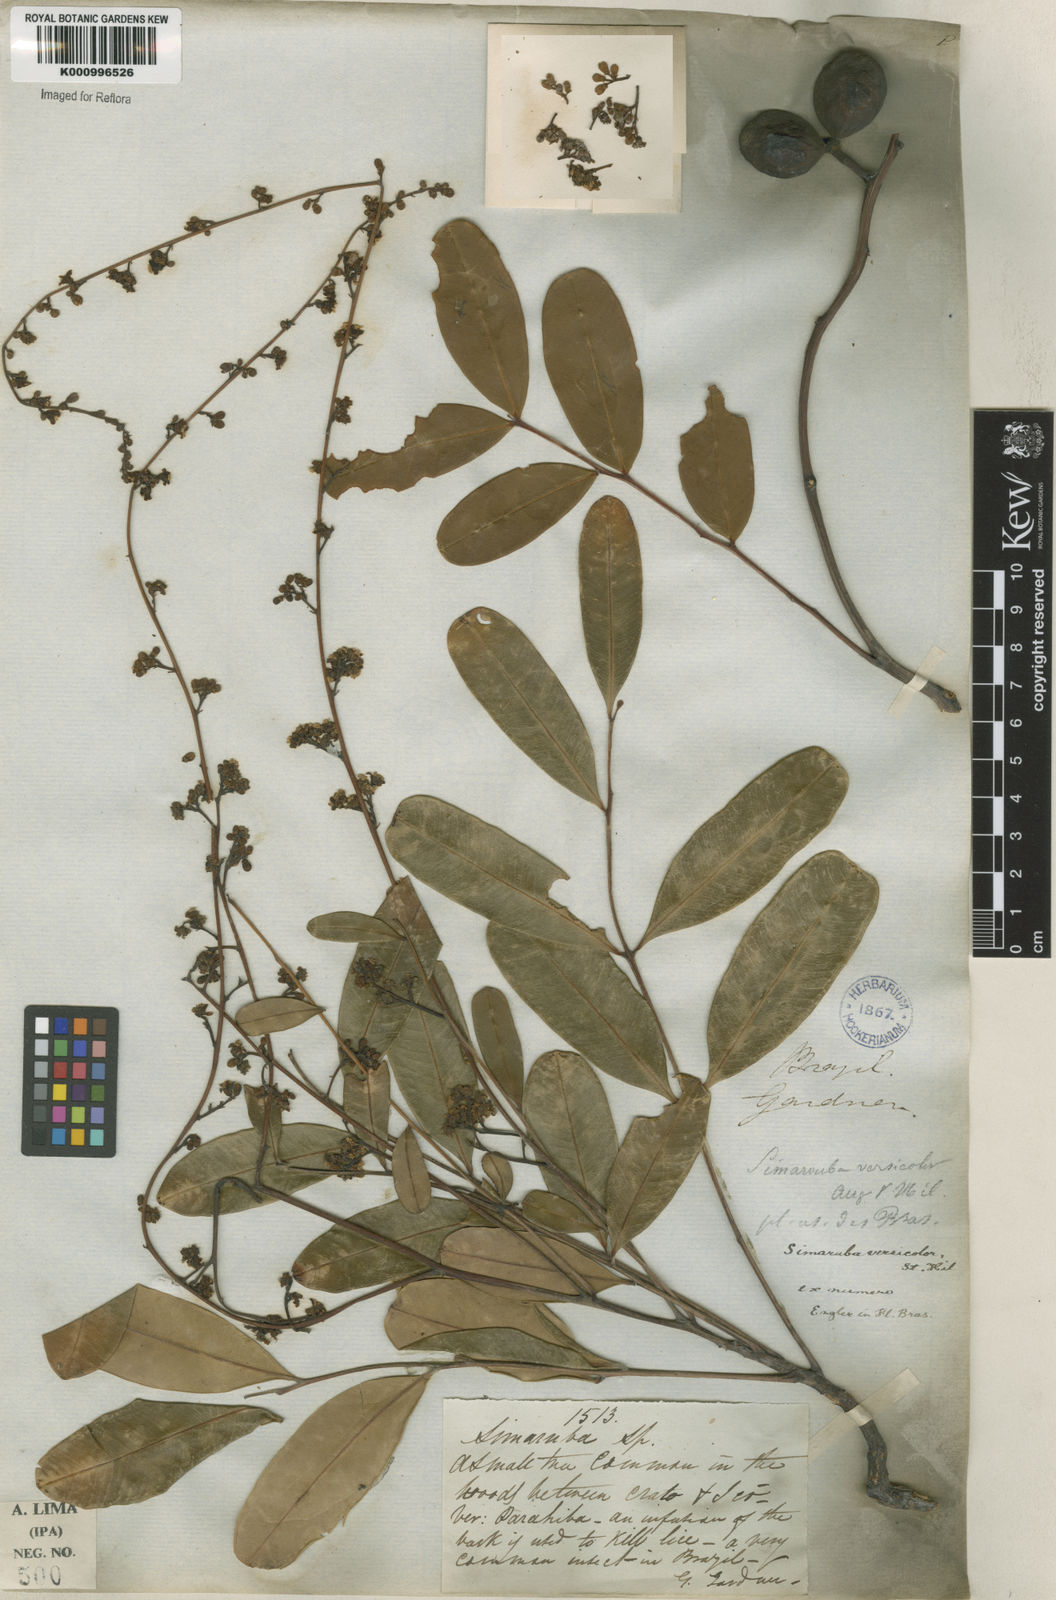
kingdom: Plantae
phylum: Tracheophyta
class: Magnoliopsida
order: Sapindales
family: Simaroubaceae
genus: Simarouba
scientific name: Simarouba versicolor
